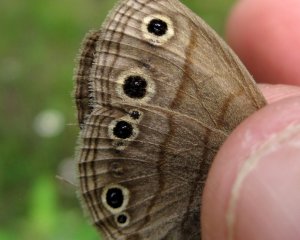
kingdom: Animalia
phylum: Arthropoda
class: Insecta
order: Lepidoptera
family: Nymphalidae
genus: Euptychia
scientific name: Euptychia cymela
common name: Little Wood Satyr
